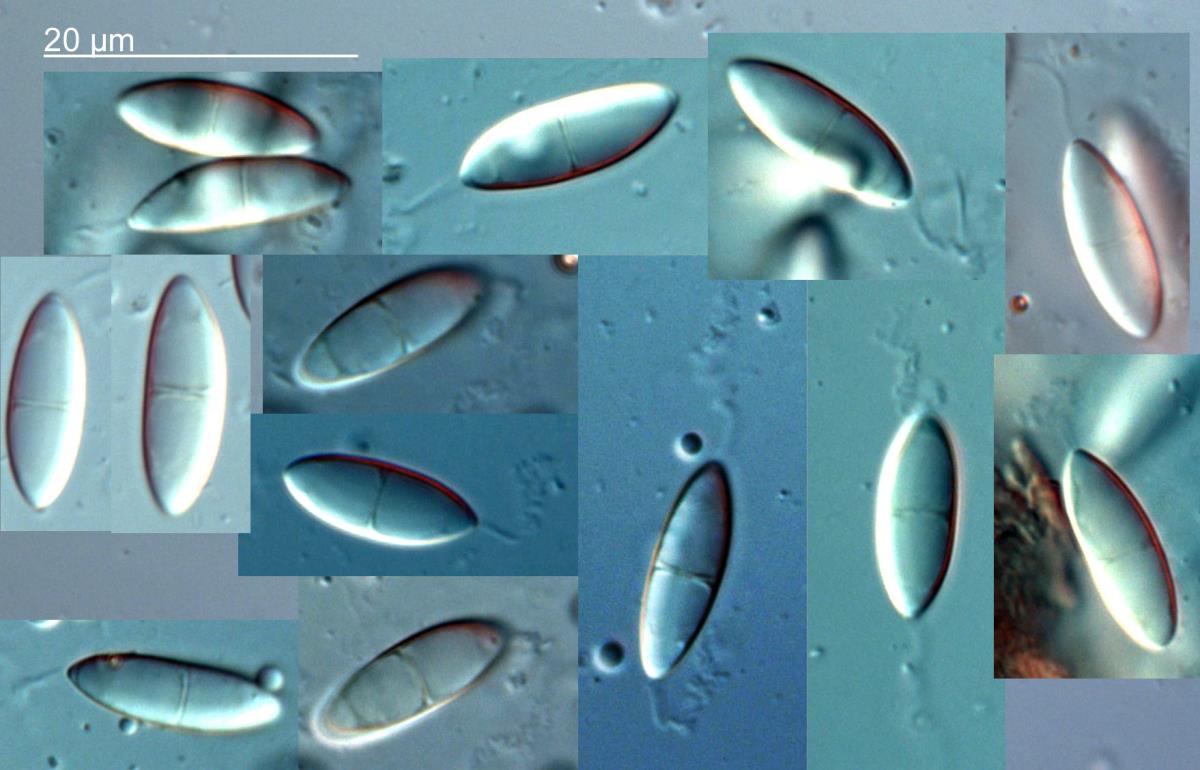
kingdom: Fungi
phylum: Ascomycota
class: Dothideomycetes
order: Pleosporales
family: Didymosphaeriaceae
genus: Montagnula
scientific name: Montagnula perforans
